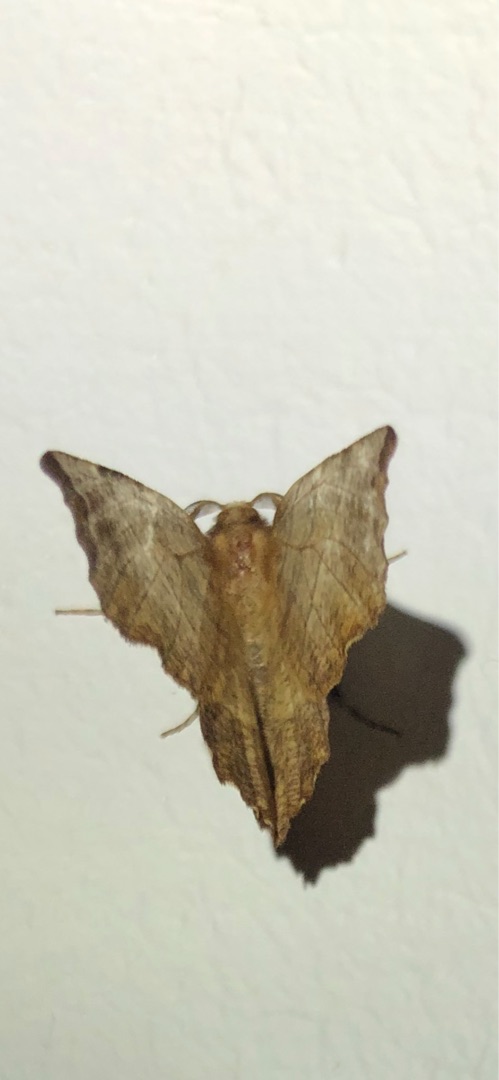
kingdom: Animalia
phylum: Arthropoda
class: Insecta
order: Lepidoptera
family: Geometridae
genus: Selenia
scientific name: Selenia dentaria
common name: Almindelig månemåler
